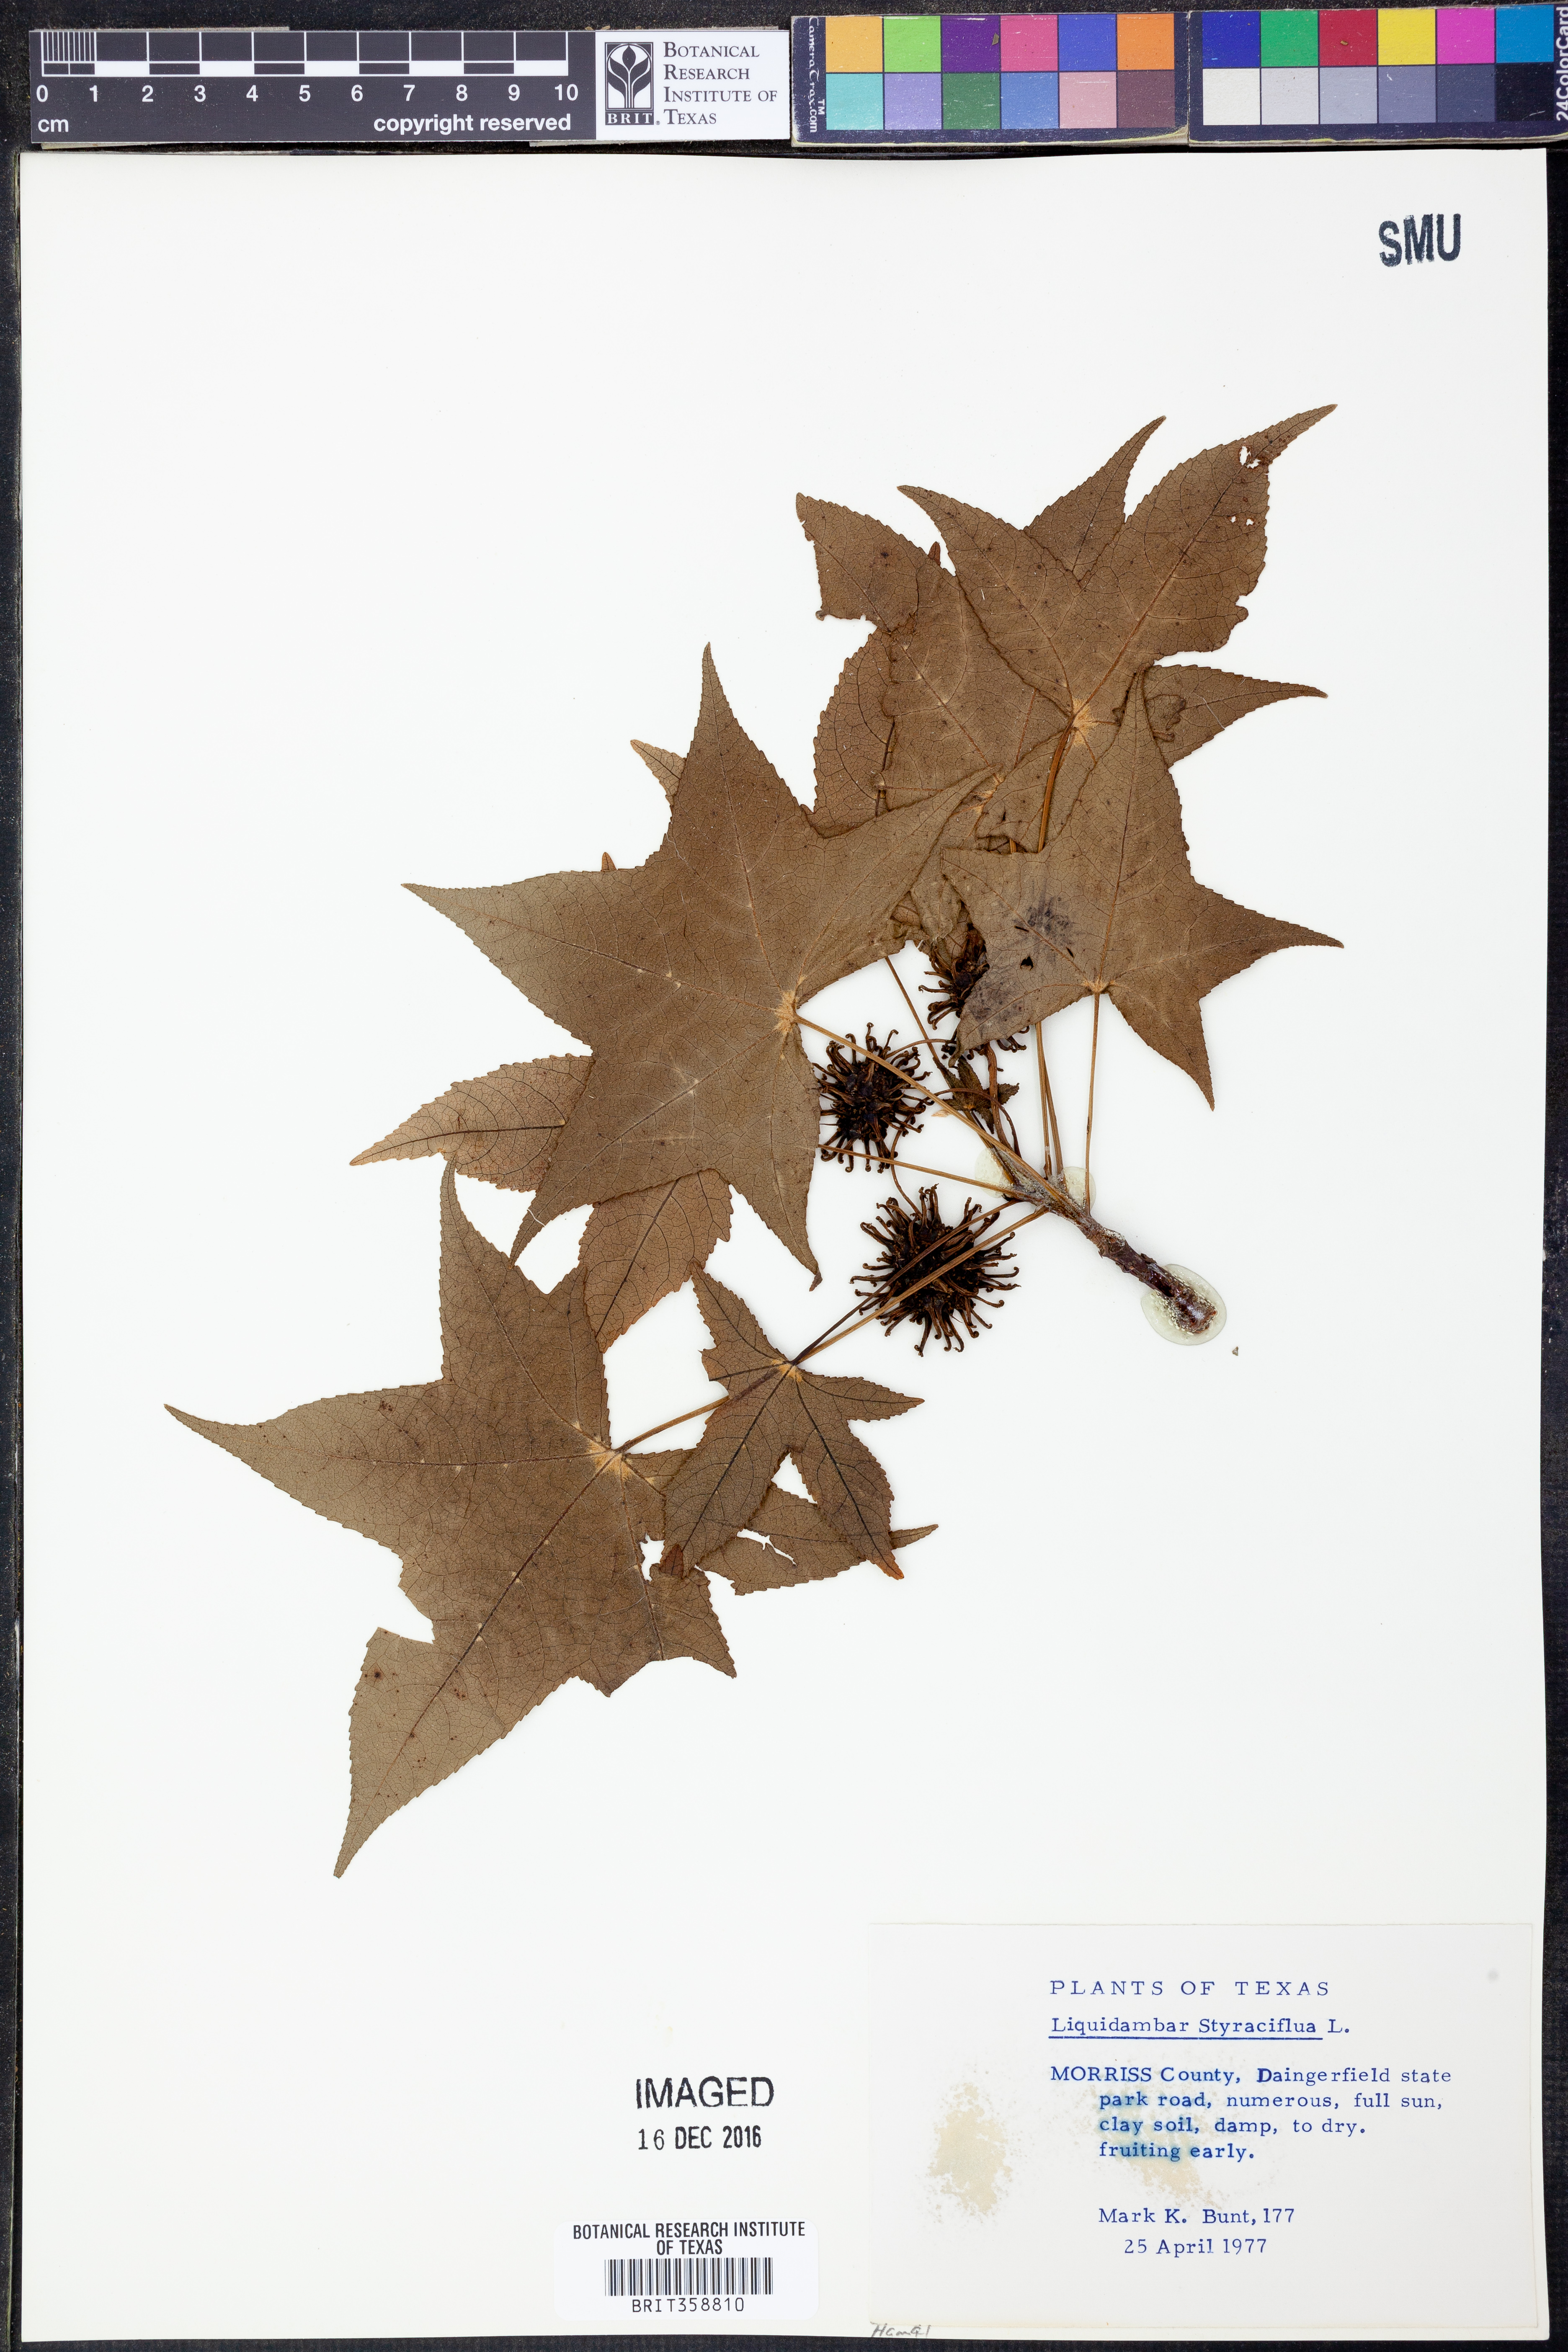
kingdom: Plantae
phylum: Tracheophyta
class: Magnoliopsida
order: Saxifragales
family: Altingiaceae
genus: Liquidambar
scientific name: Liquidambar styraciflua
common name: Sweet gum
